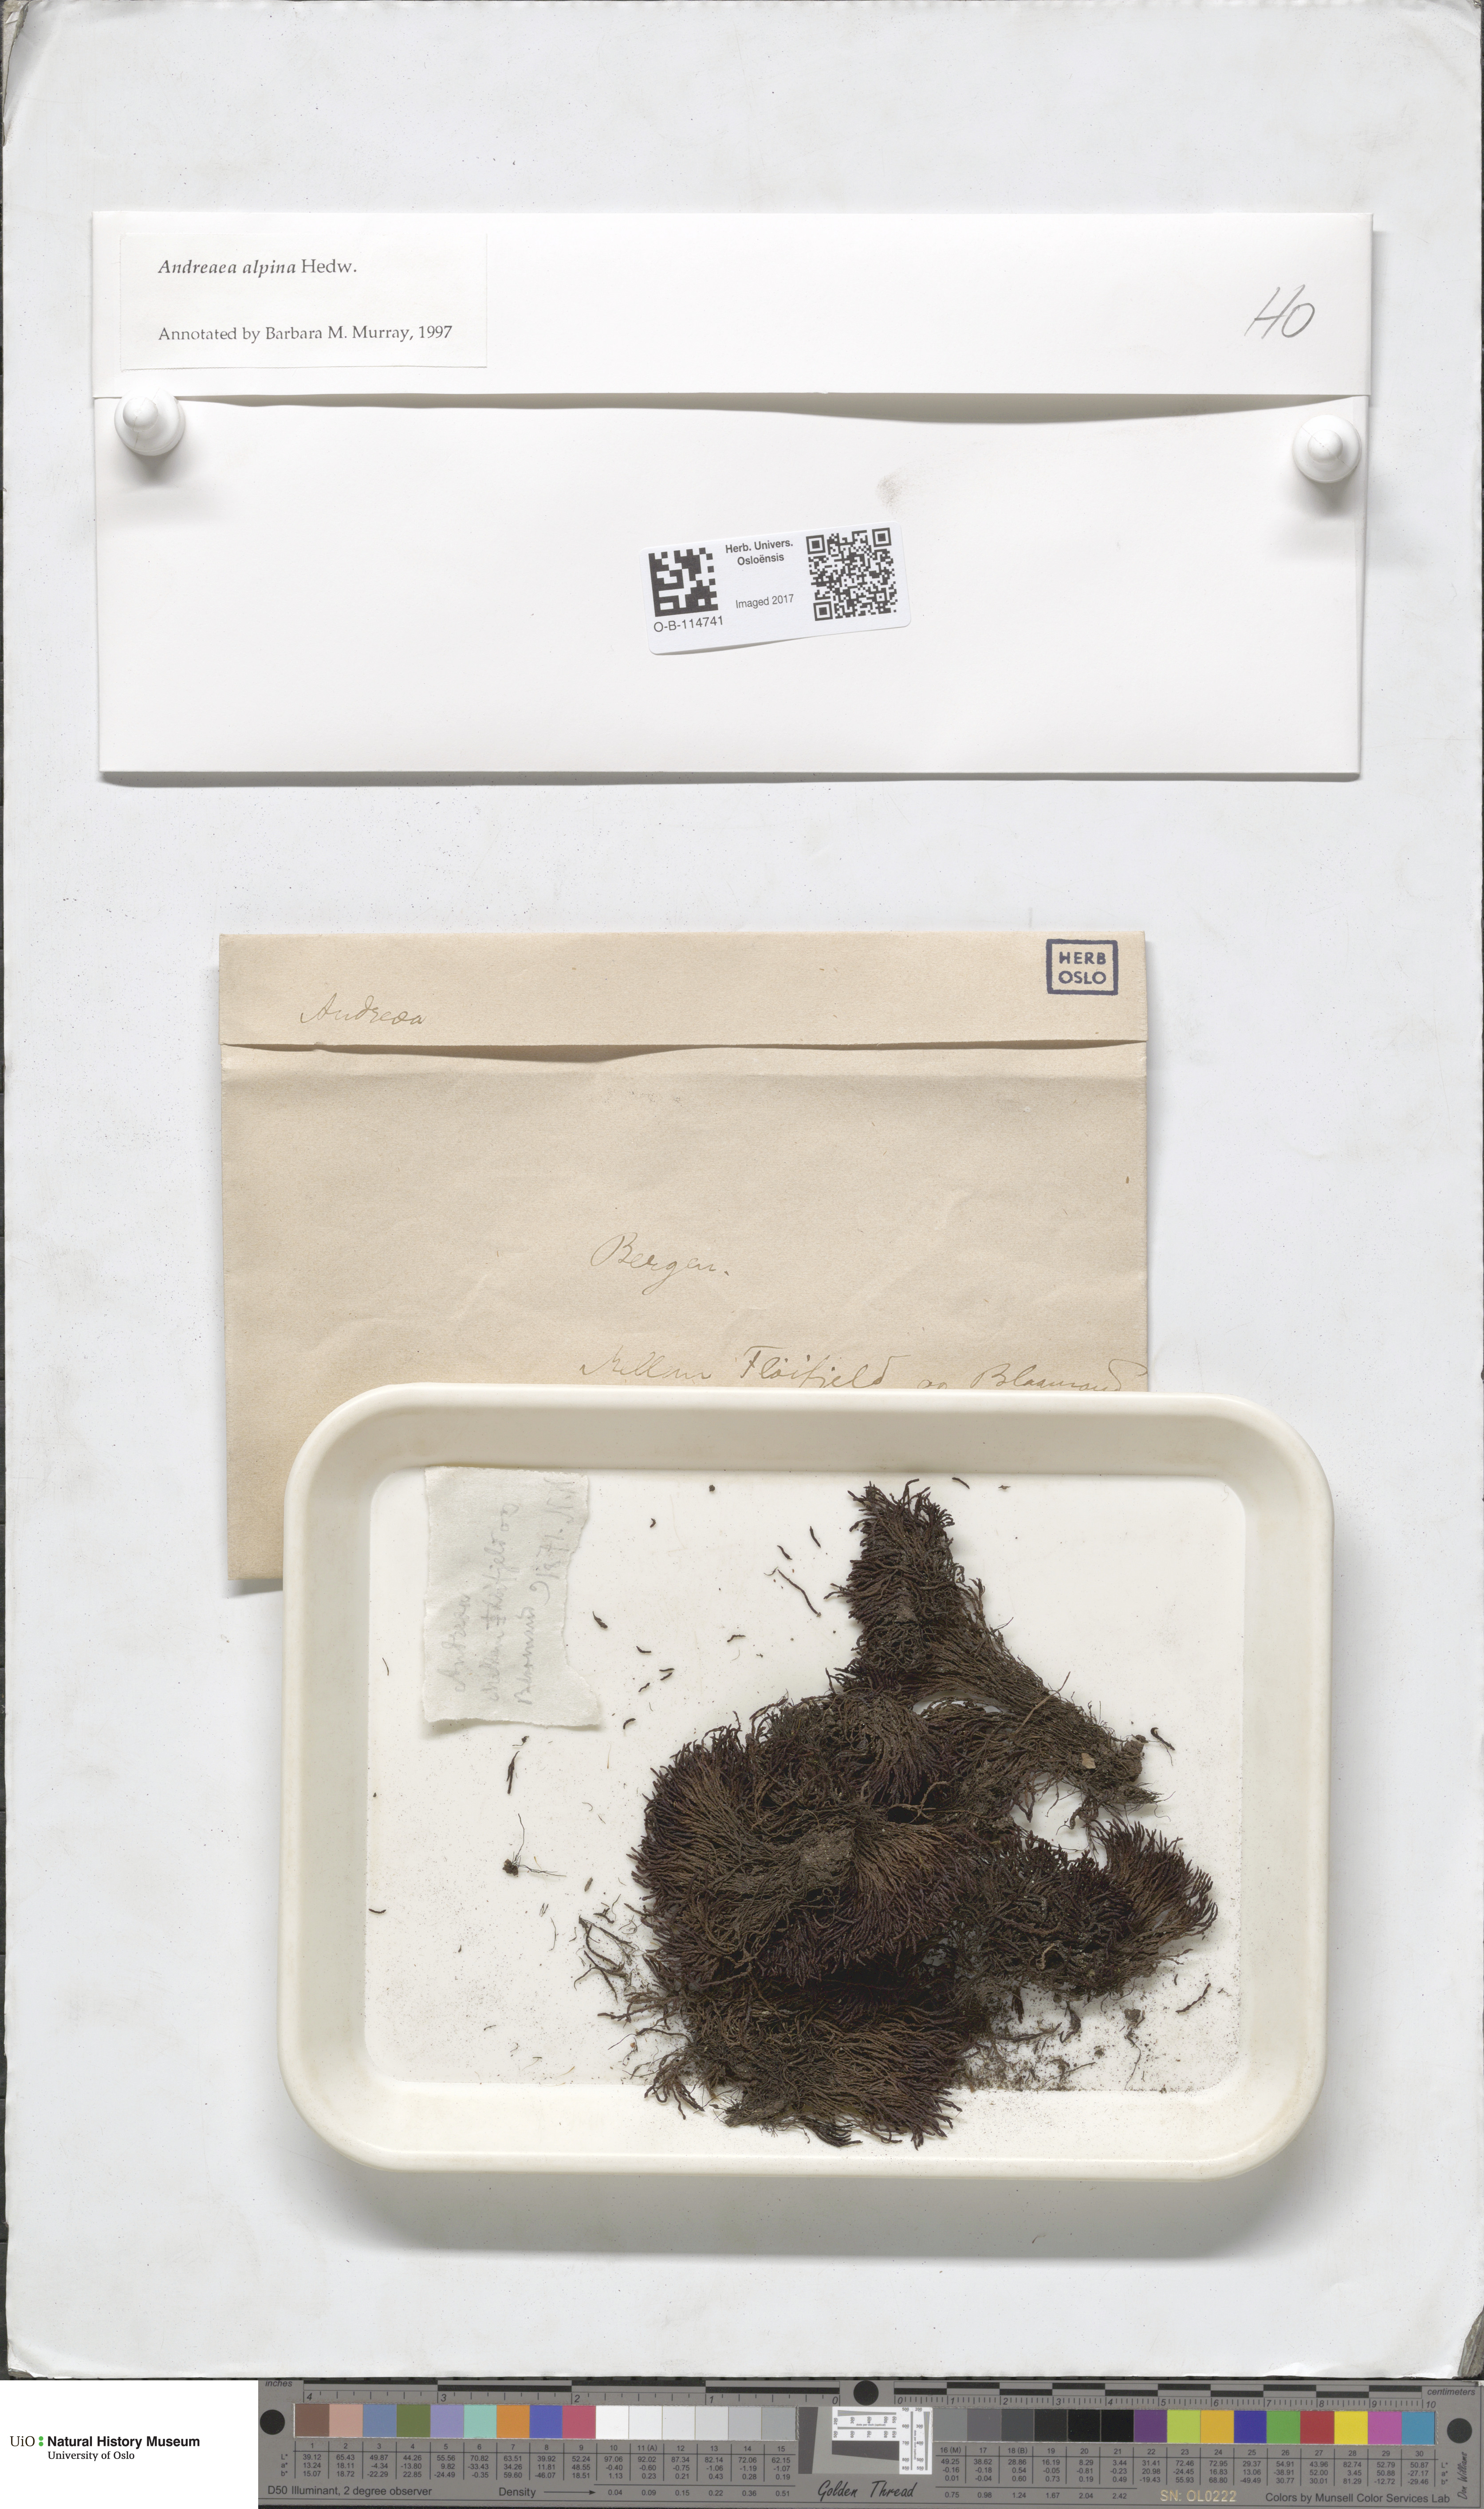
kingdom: Plantae
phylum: Bryophyta
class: Andreaeopsida
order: Andreaeales
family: Andreaeaceae
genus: Andreaea
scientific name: Andreaea hookeri
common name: Alpine rock-moss
